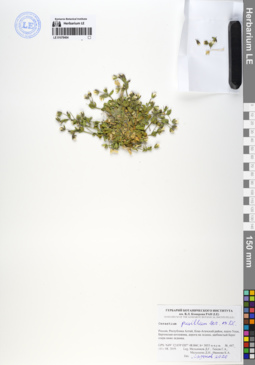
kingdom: Plantae
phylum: Tracheophyta
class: Magnoliopsida
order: Caryophyllales
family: Caryophyllaceae
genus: Cerastium
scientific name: Cerastium pusillum
